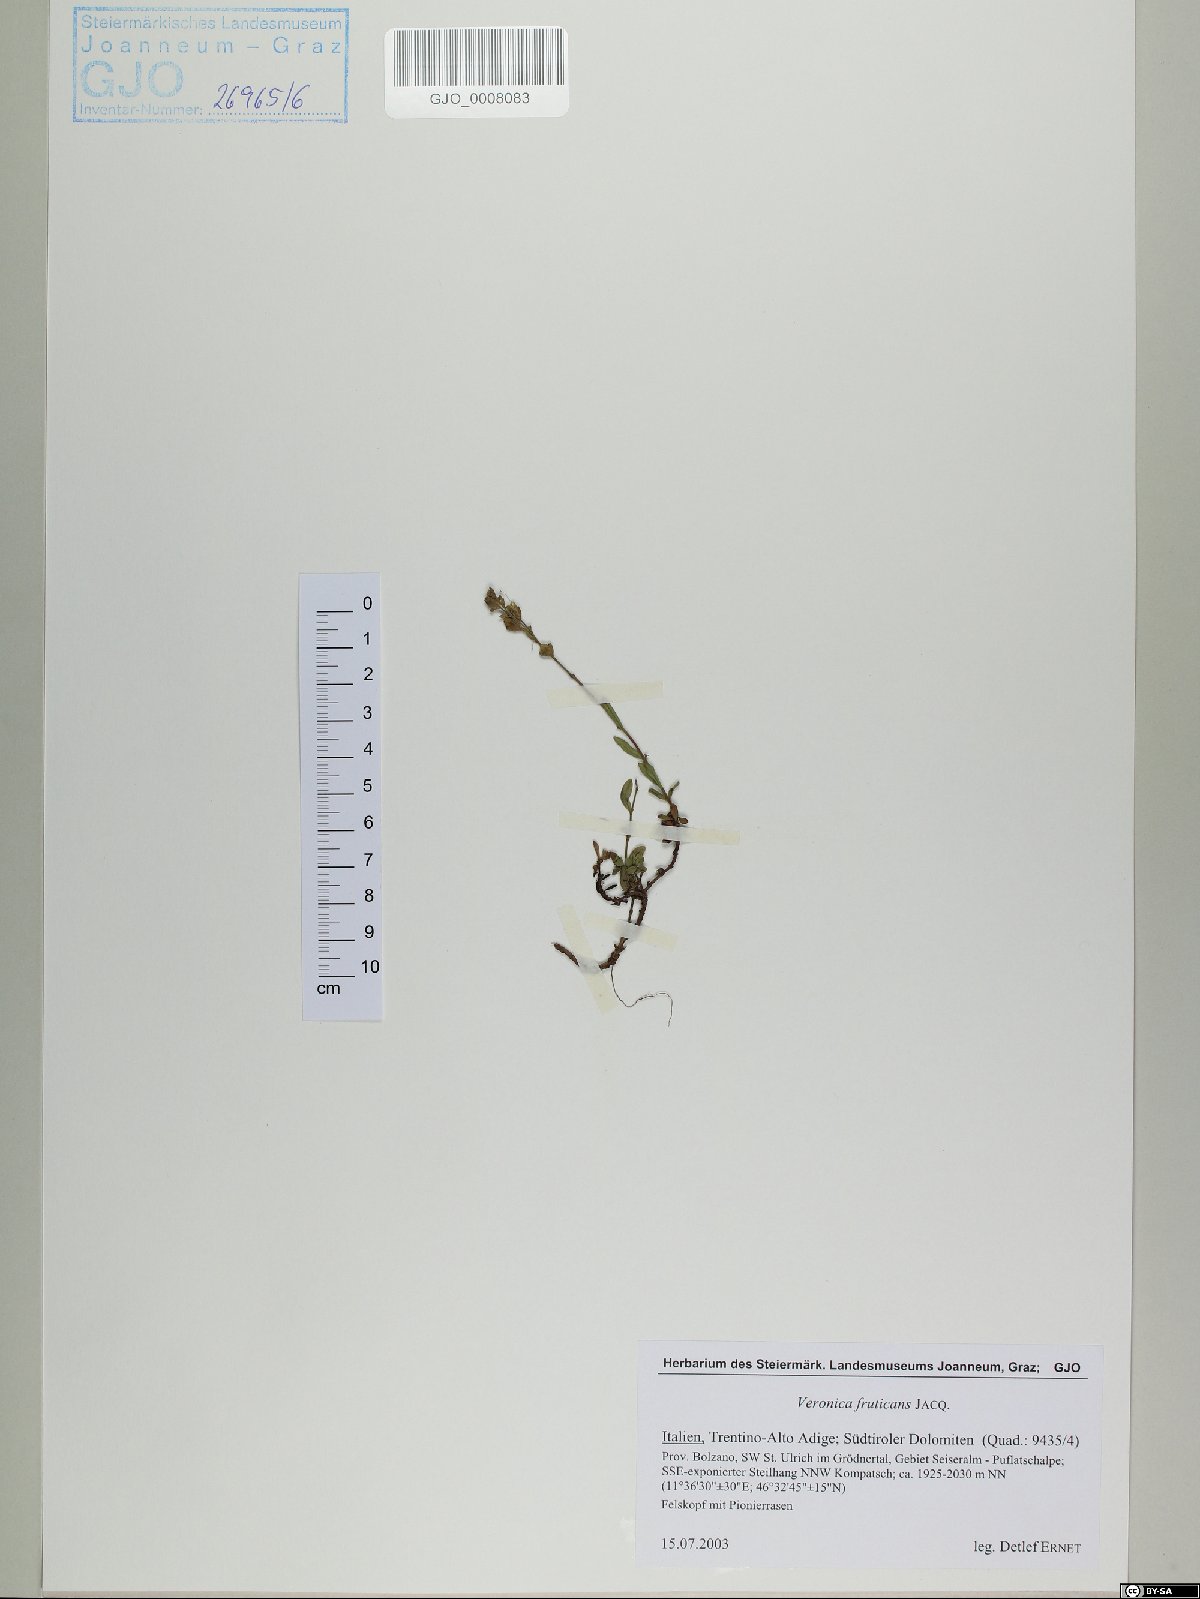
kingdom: Plantae
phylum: Tracheophyta
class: Magnoliopsida
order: Lamiales
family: Plantaginaceae
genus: Veronica
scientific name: Veronica fruticans
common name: Rock speedwell
